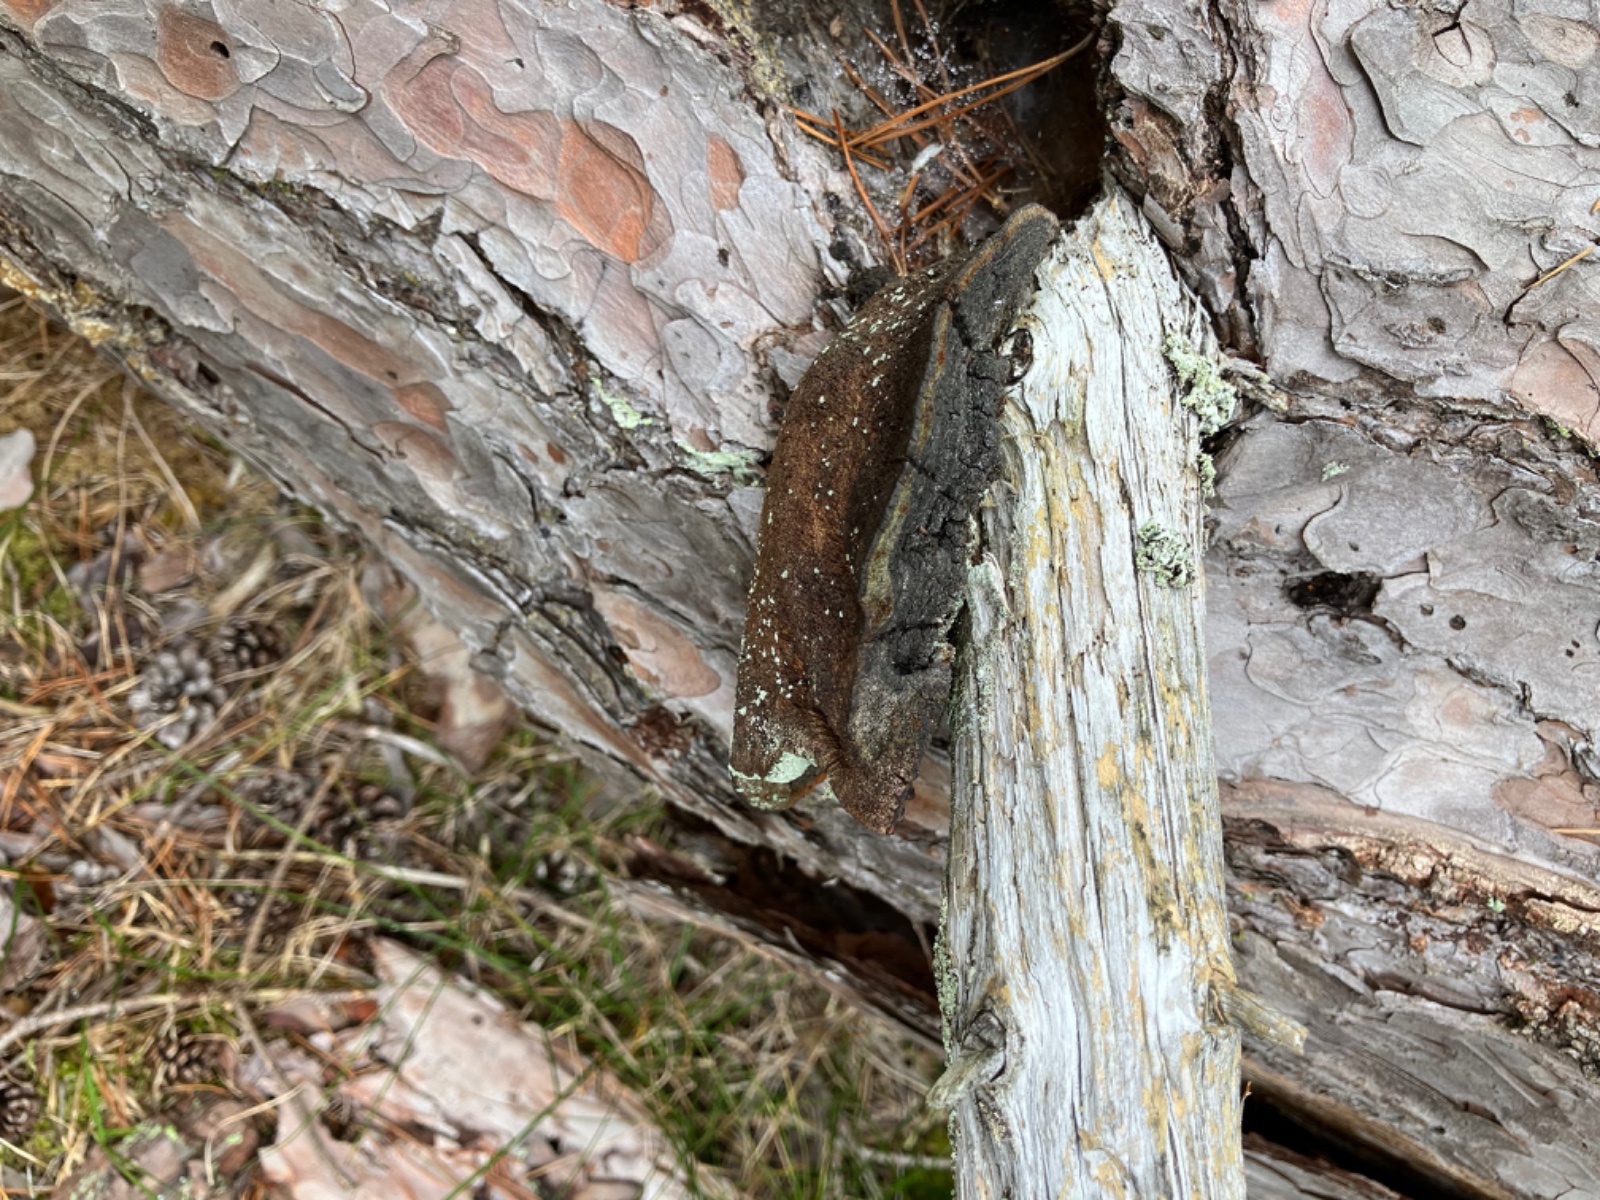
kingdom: Fungi
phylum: Basidiomycota
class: Agaricomycetes
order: Hymenochaetales
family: Hymenochaetaceae
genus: Porodaedalea
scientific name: Porodaedalea pini
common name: fyrre-ildporesvamp
